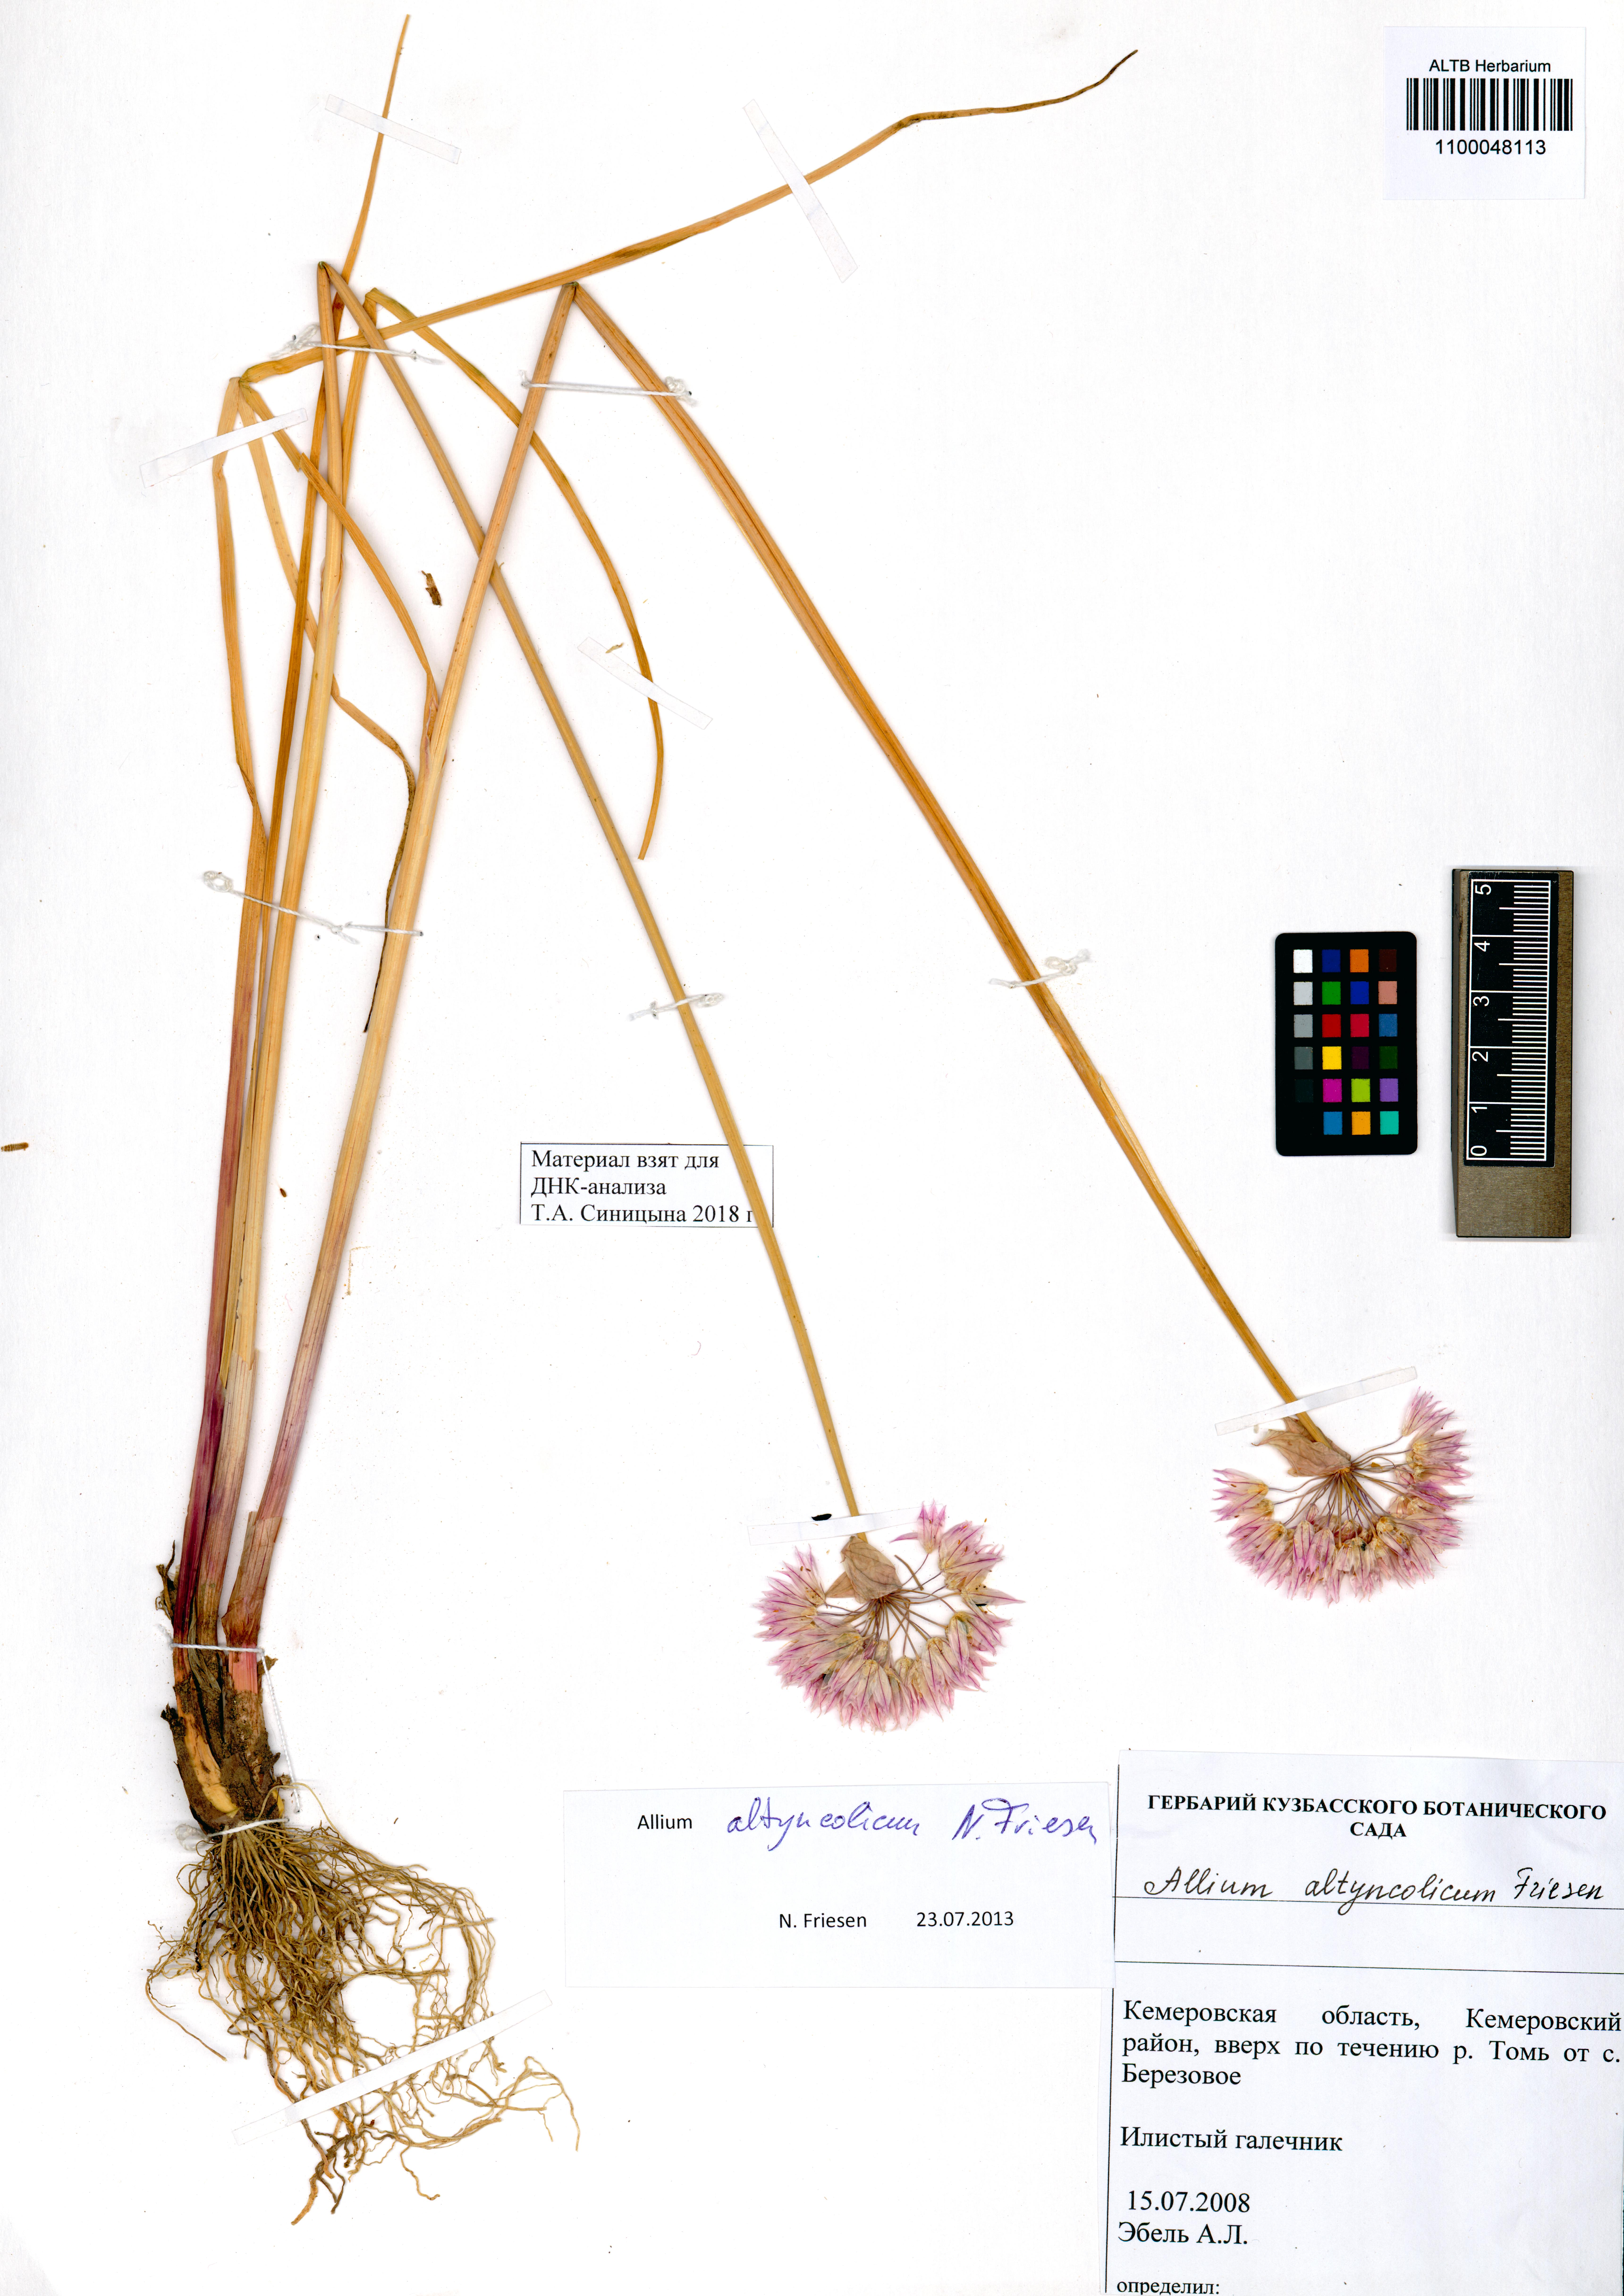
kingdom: Plantae
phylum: Tracheophyta
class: Liliopsida
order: Asparagales
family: Amaryllidaceae
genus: Allium
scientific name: Allium altyncolicum
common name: Altynkol chive
